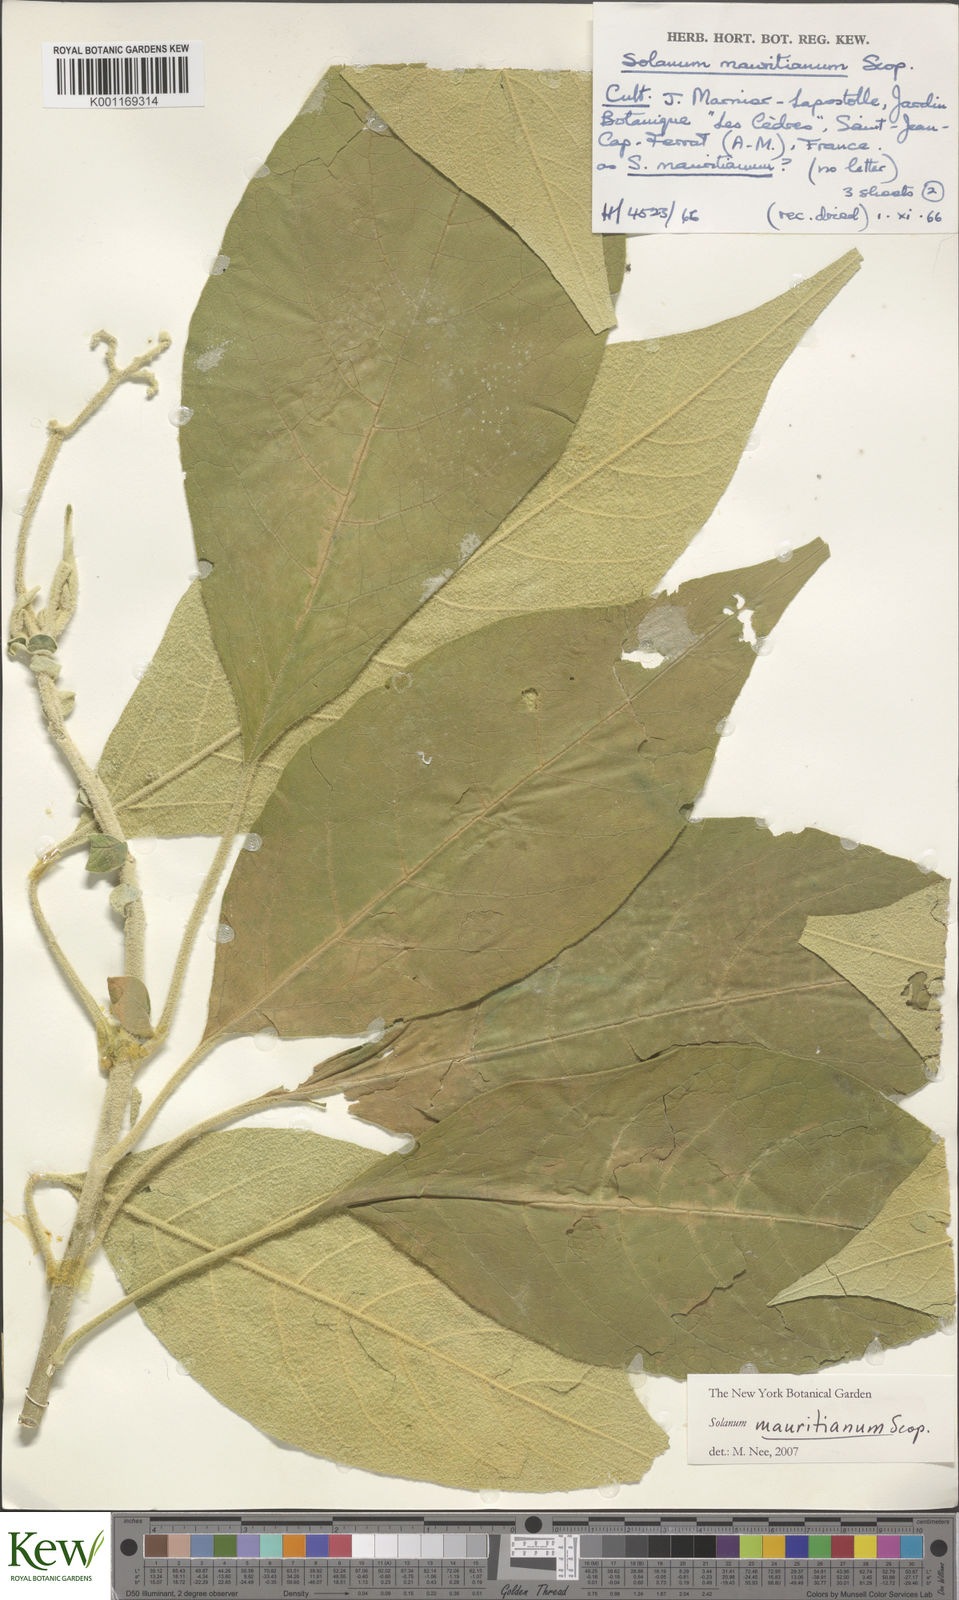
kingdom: Plantae
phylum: Tracheophyta
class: Magnoliopsida
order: Solanales
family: Solanaceae
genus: Solanum
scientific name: Solanum mauritianum
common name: Earleaf nightshade
